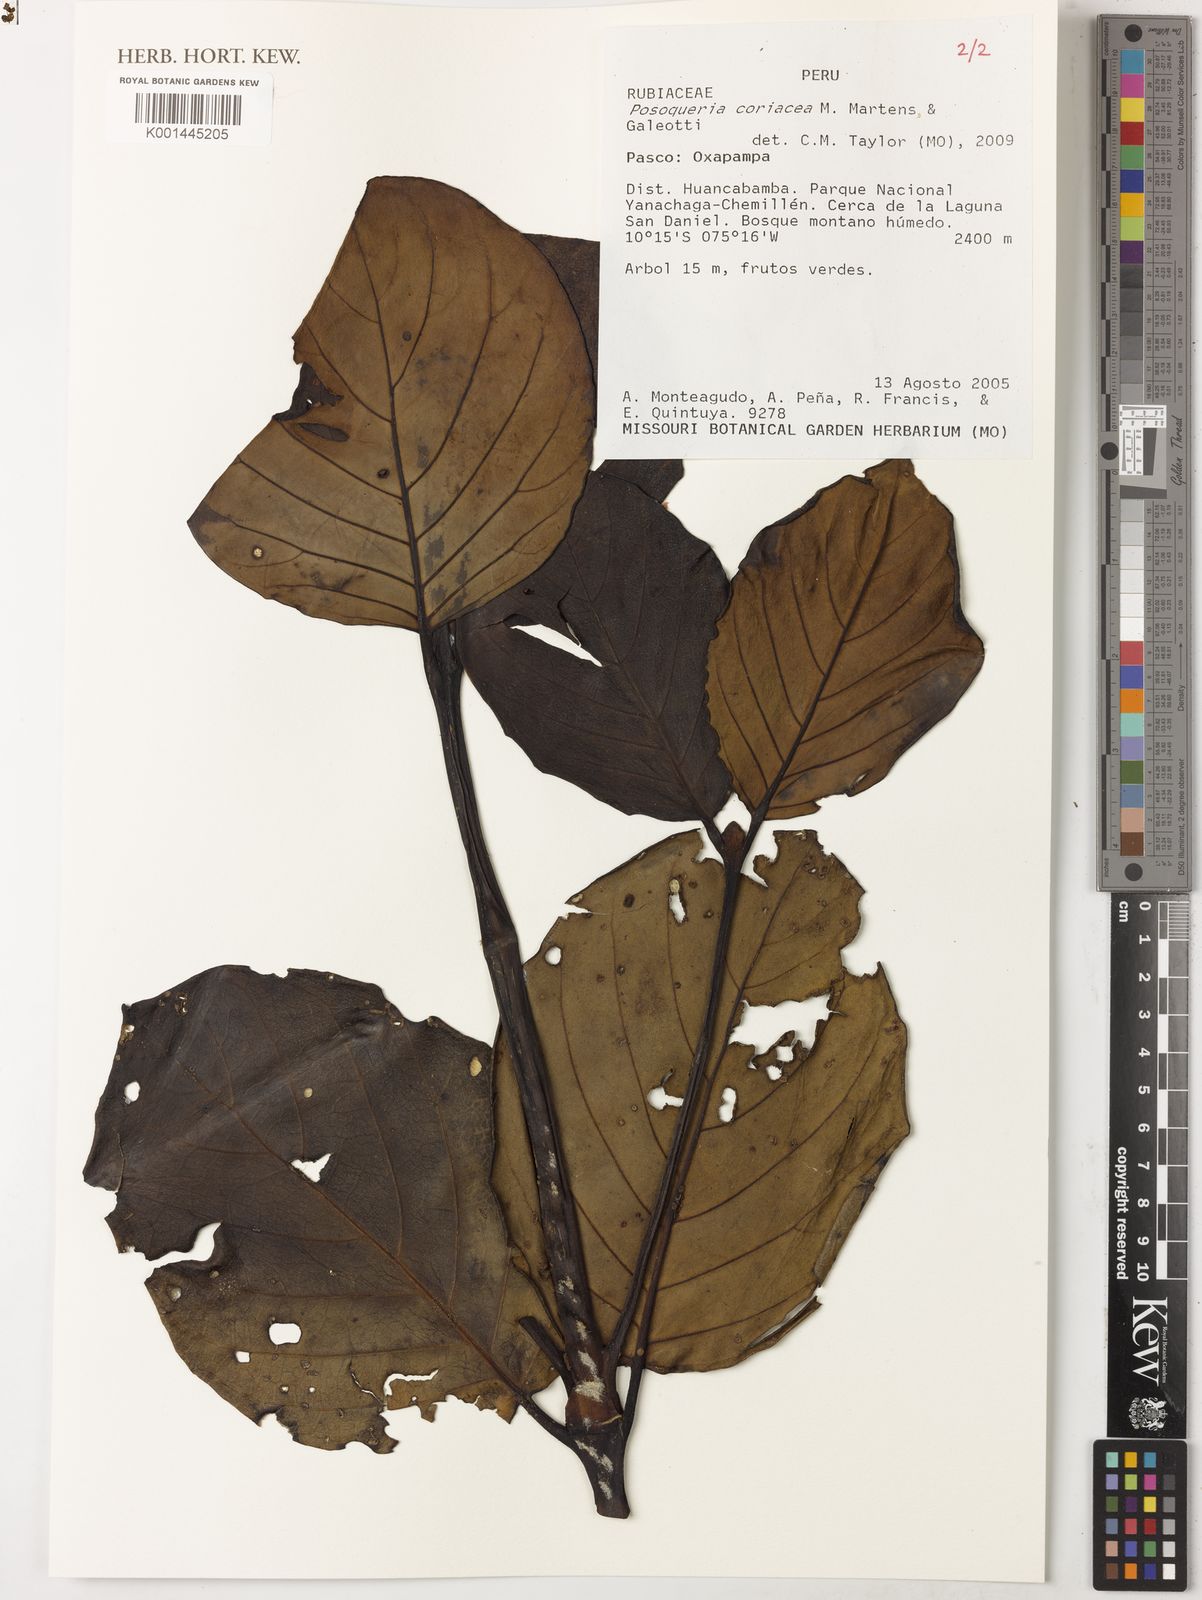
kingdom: Plantae
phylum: Tracheophyta
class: Magnoliopsida
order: Gentianales
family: Rubiaceae
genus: Posoqueria
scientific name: Posoqueria coriacea
